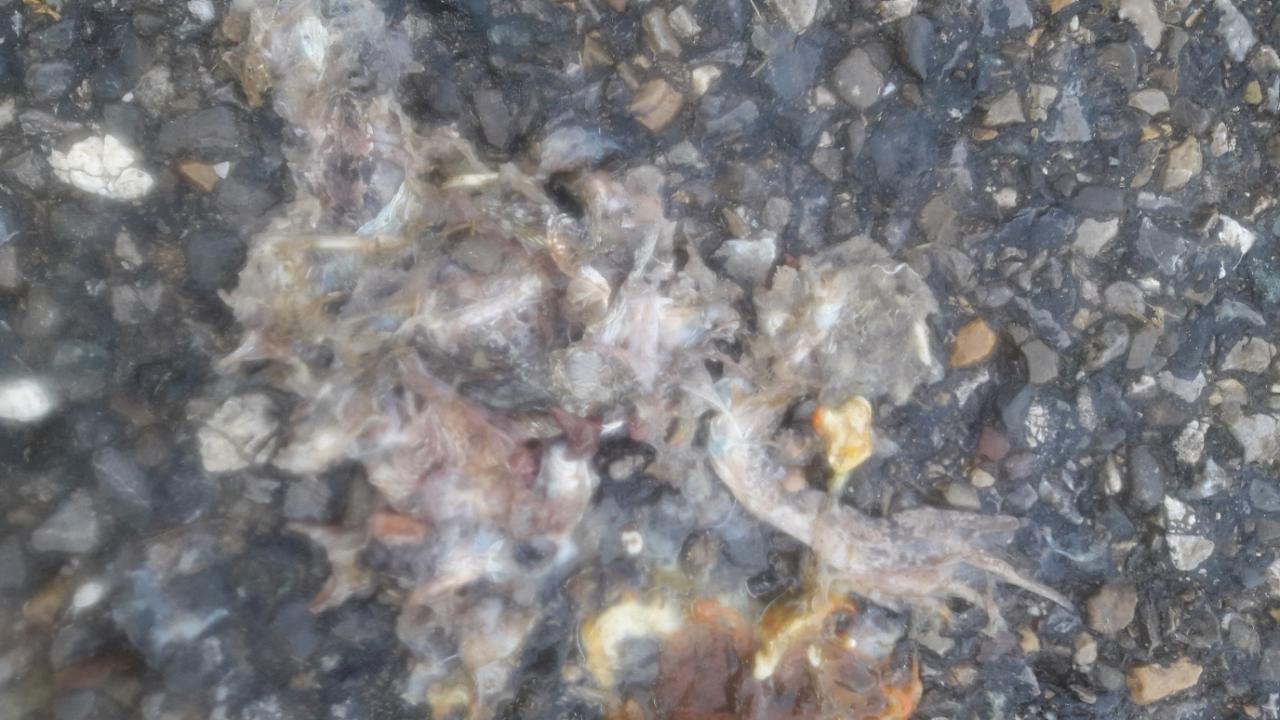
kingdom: Animalia
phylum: Chordata
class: Amphibia
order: Anura
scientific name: Anura
